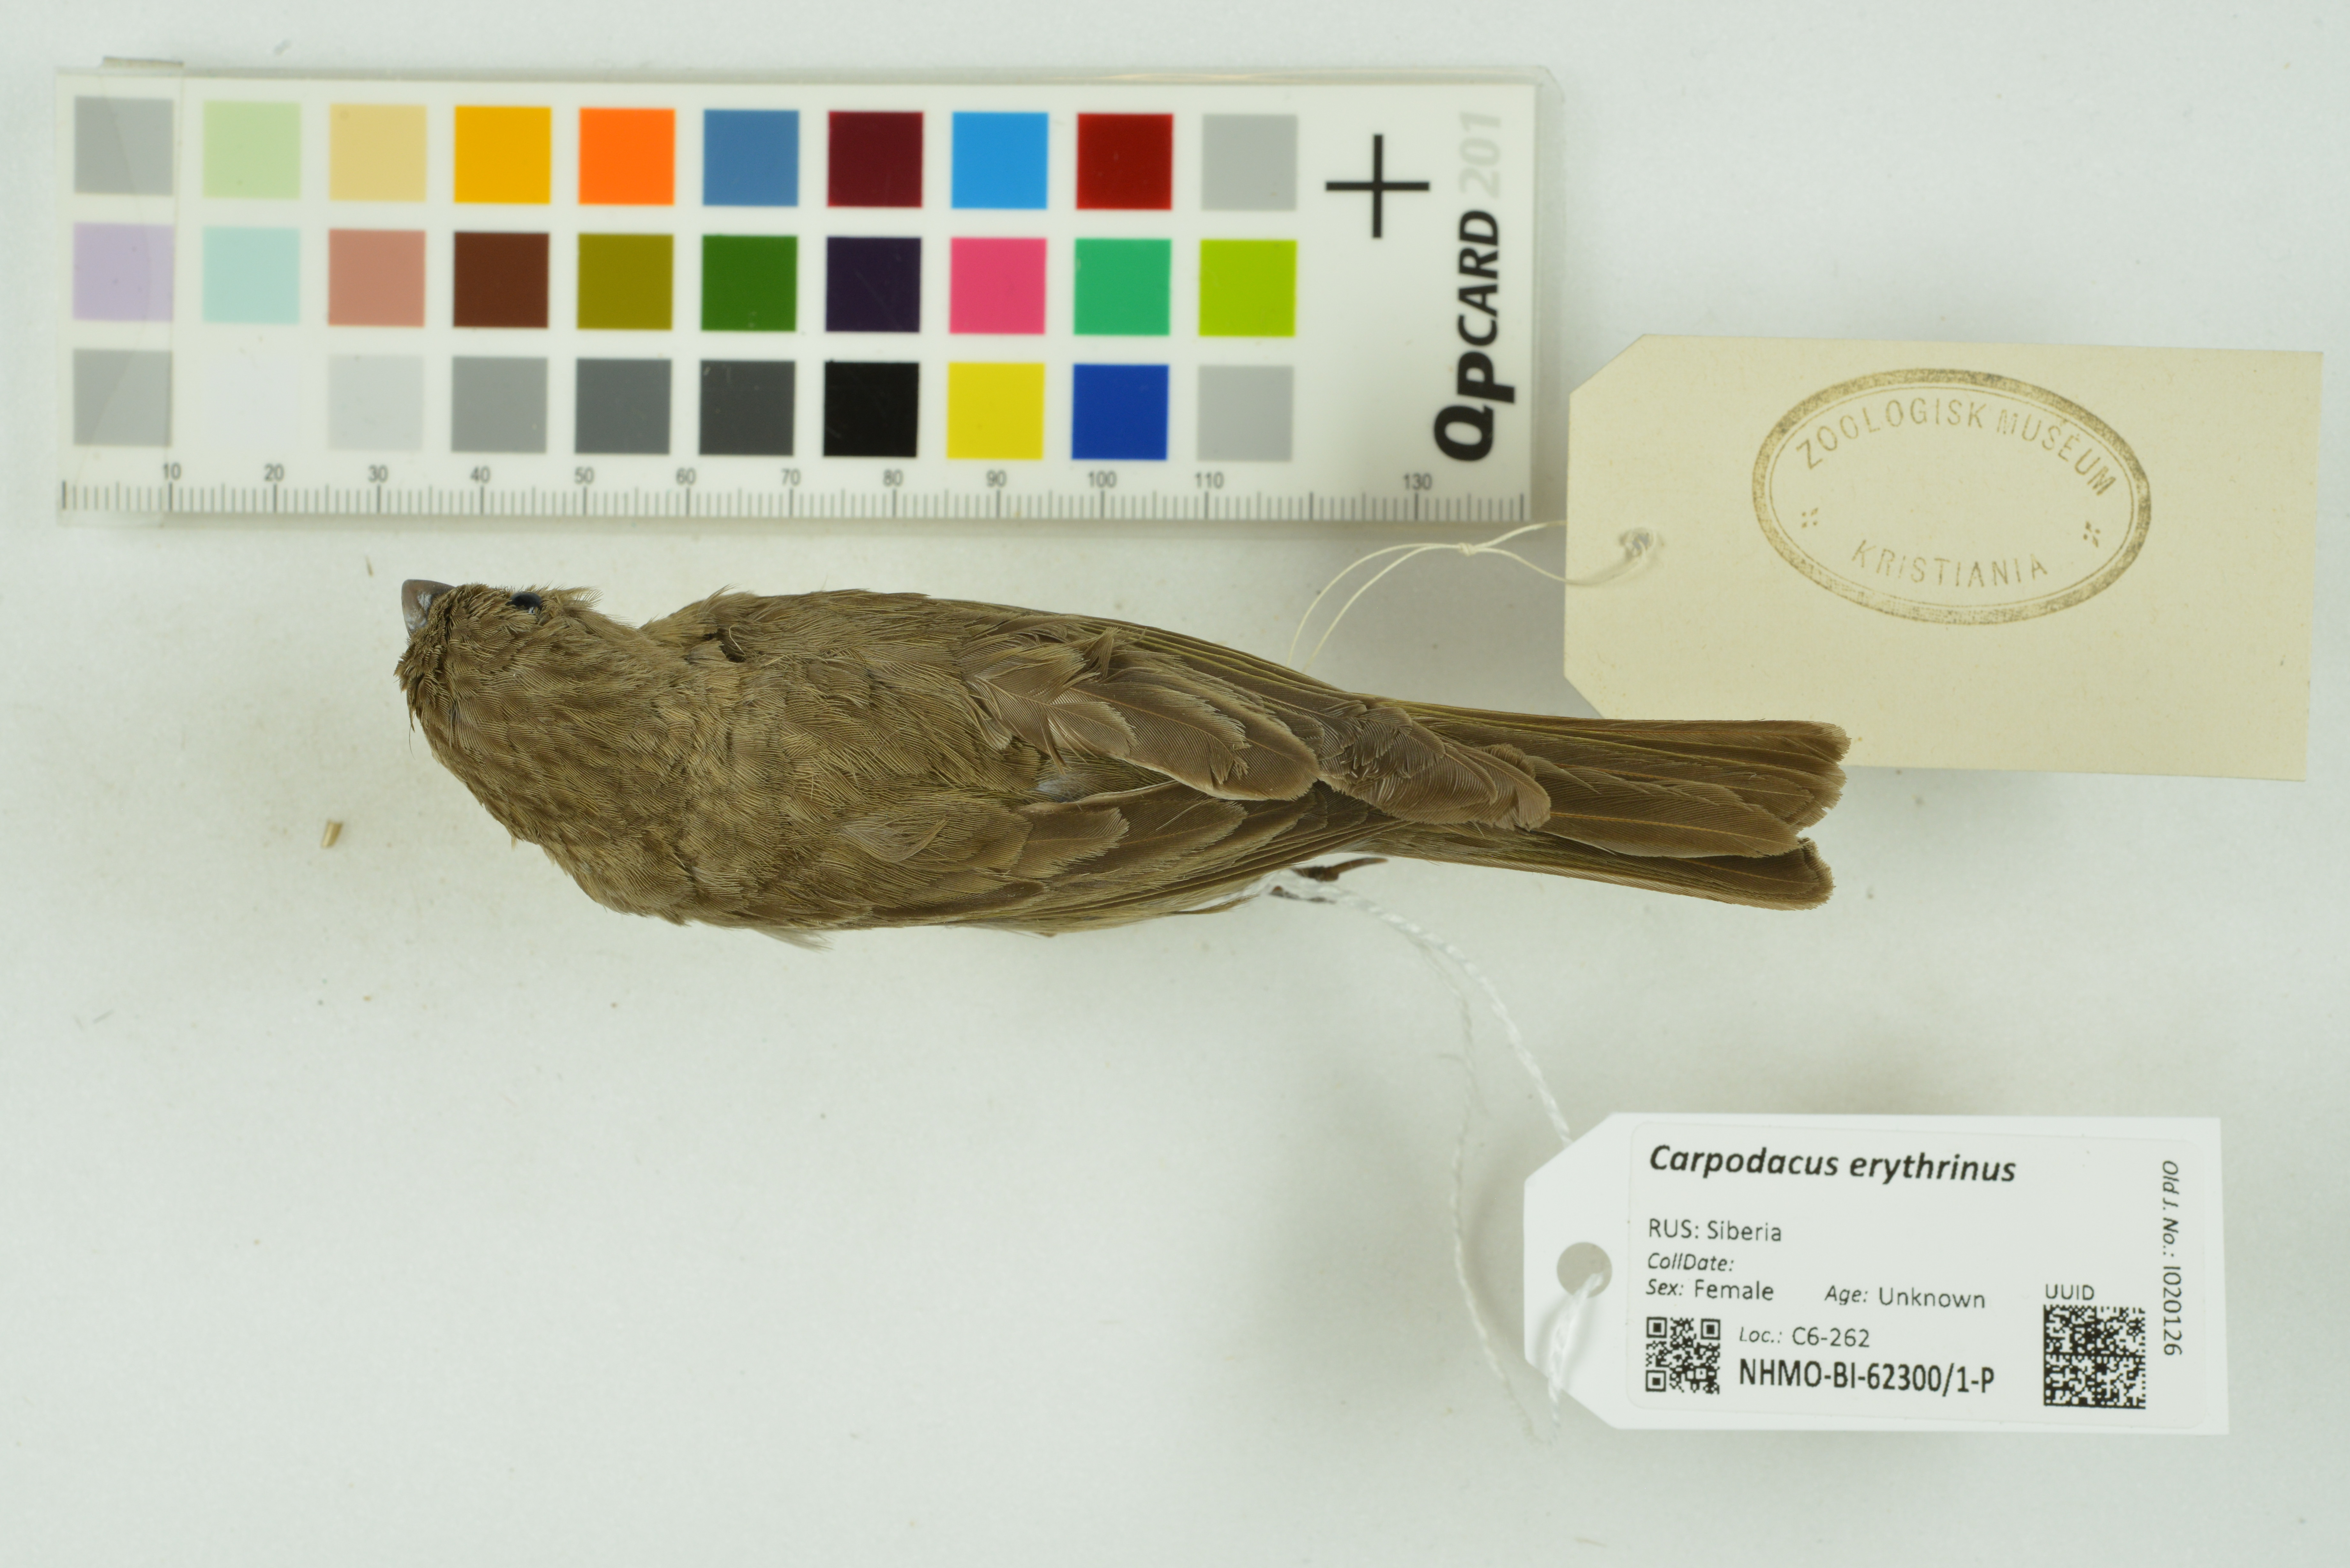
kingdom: Animalia
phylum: Chordata
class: Aves
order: Passeriformes
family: Fringillidae
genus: Carpodacus
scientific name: Carpodacus erythrinus
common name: Common rosefinch
